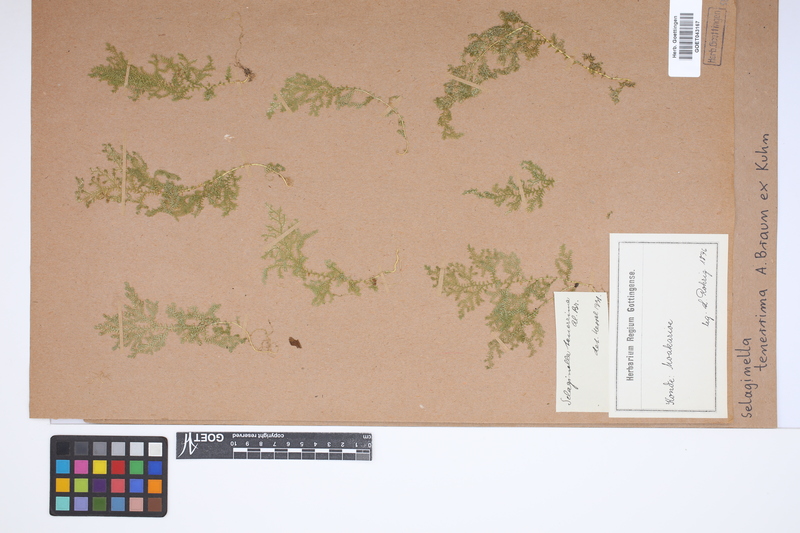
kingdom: Plantae
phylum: Tracheophyta
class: Lycopodiopsida
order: Selaginellales
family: Selaginellaceae
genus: Selaginella
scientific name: Selaginella tenerrima
